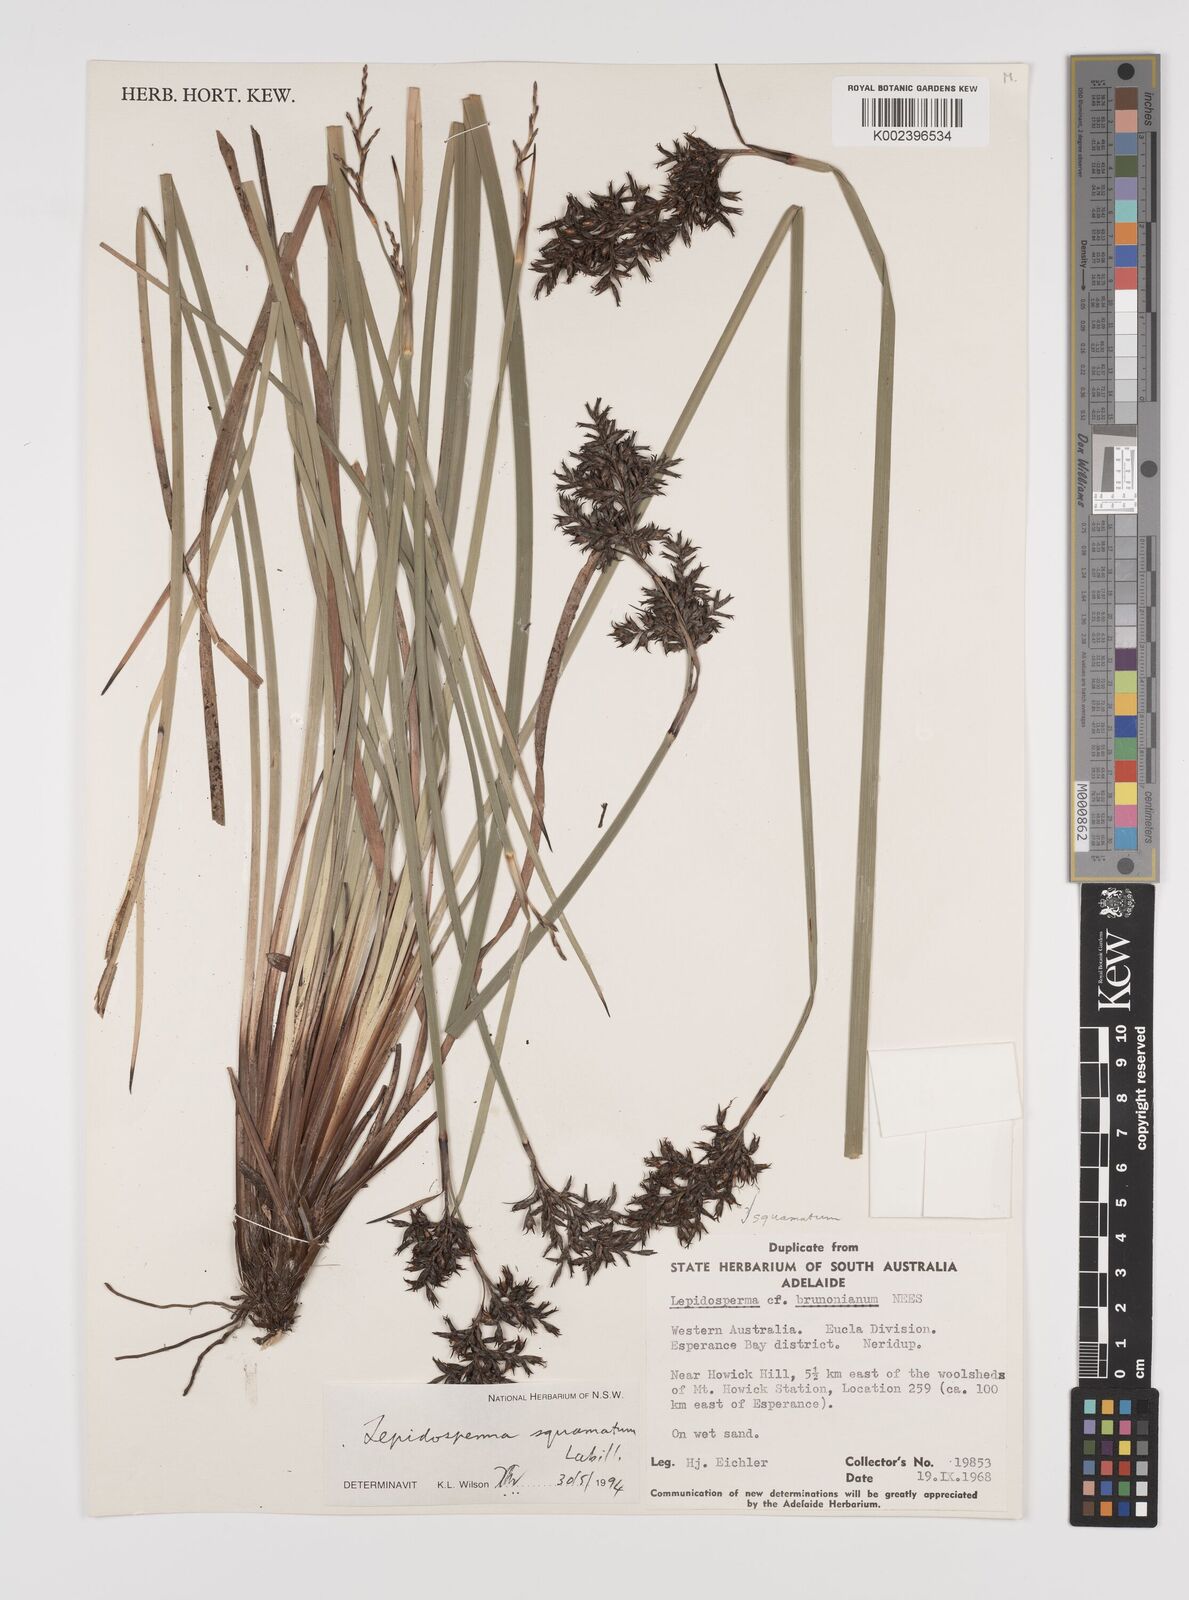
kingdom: Plantae
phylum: Tracheophyta
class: Liliopsida
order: Poales
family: Cyperaceae
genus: Lepidosperma
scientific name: Lepidosperma squamatum
